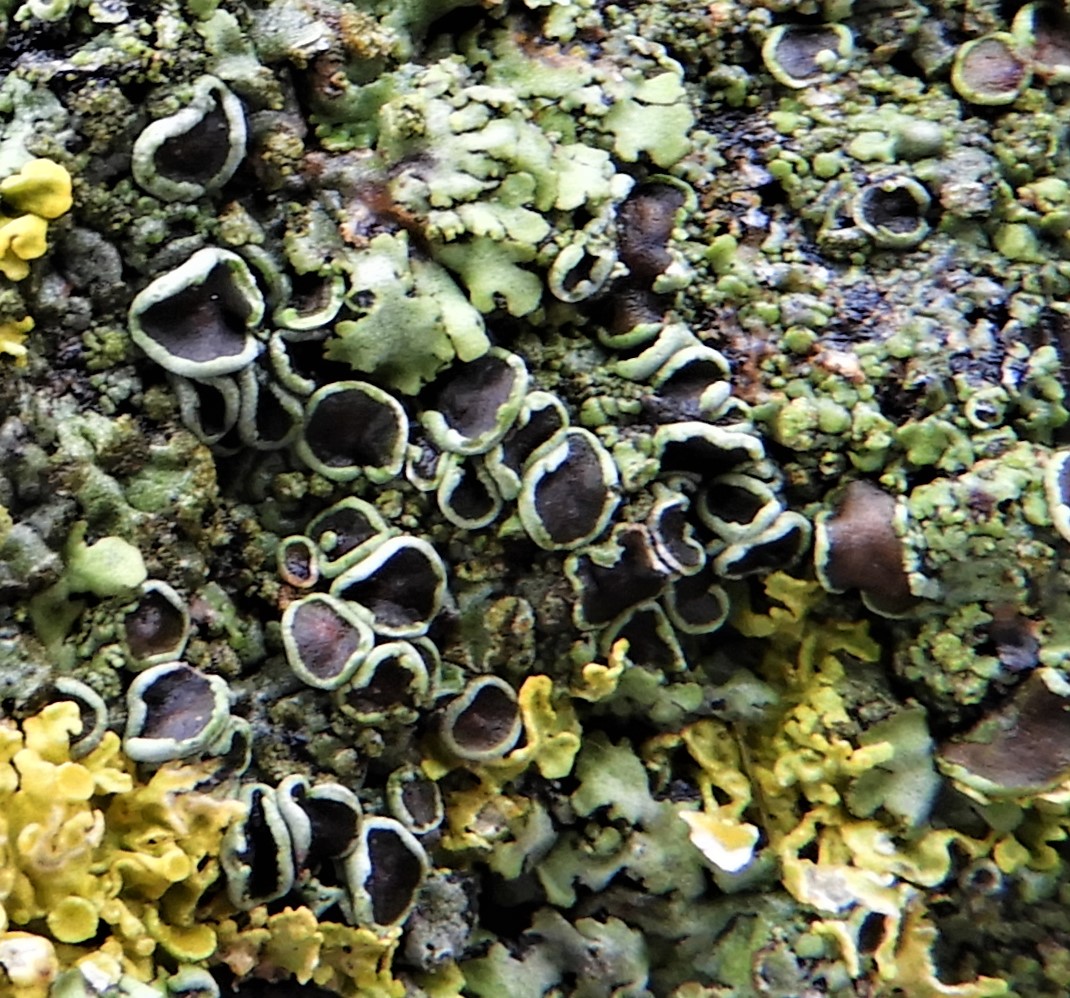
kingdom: Fungi
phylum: Ascomycota
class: Lecanoromycetes
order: Lecanorales
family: Lecanoraceae
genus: Protoparmeliopsis
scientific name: Protoparmeliopsis muralis
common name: randfliget kantskivelav
